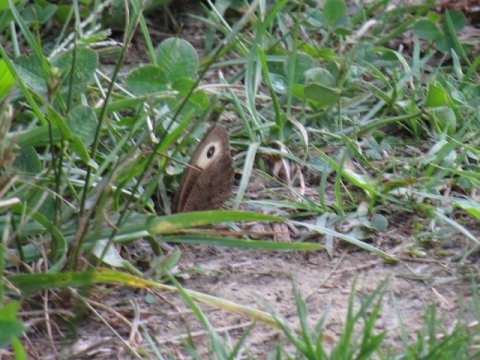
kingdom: Animalia
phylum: Arthropoda
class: Insecta
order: Lepidoptera
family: Nymphalidae
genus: Cercyonis
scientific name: Cercyonis pegala
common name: Common Wood-Nymph
